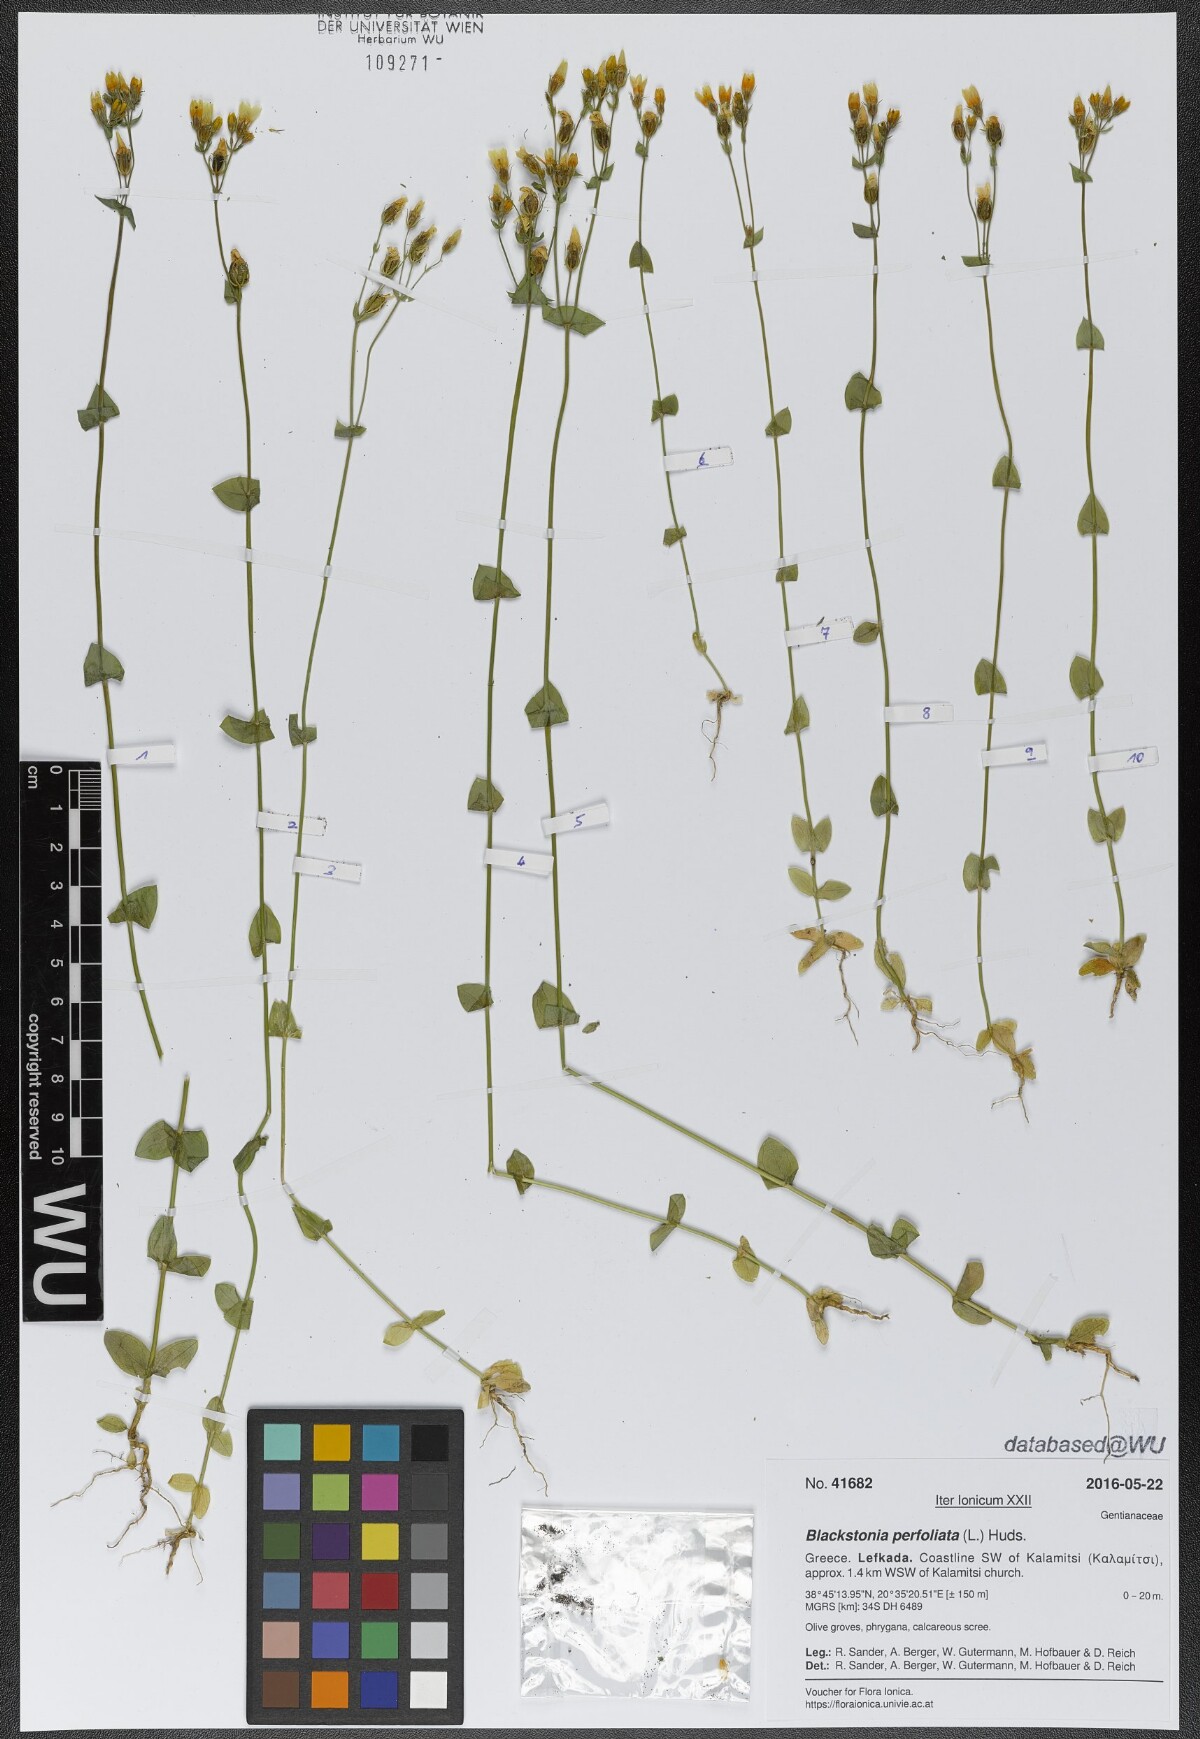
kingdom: Plantae
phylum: Tracheophyta
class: Magnoliopsida
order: Gentianales
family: Gentianaceae
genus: Blackstonia
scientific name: Blackstonia perfoliata
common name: Yellow-wort
